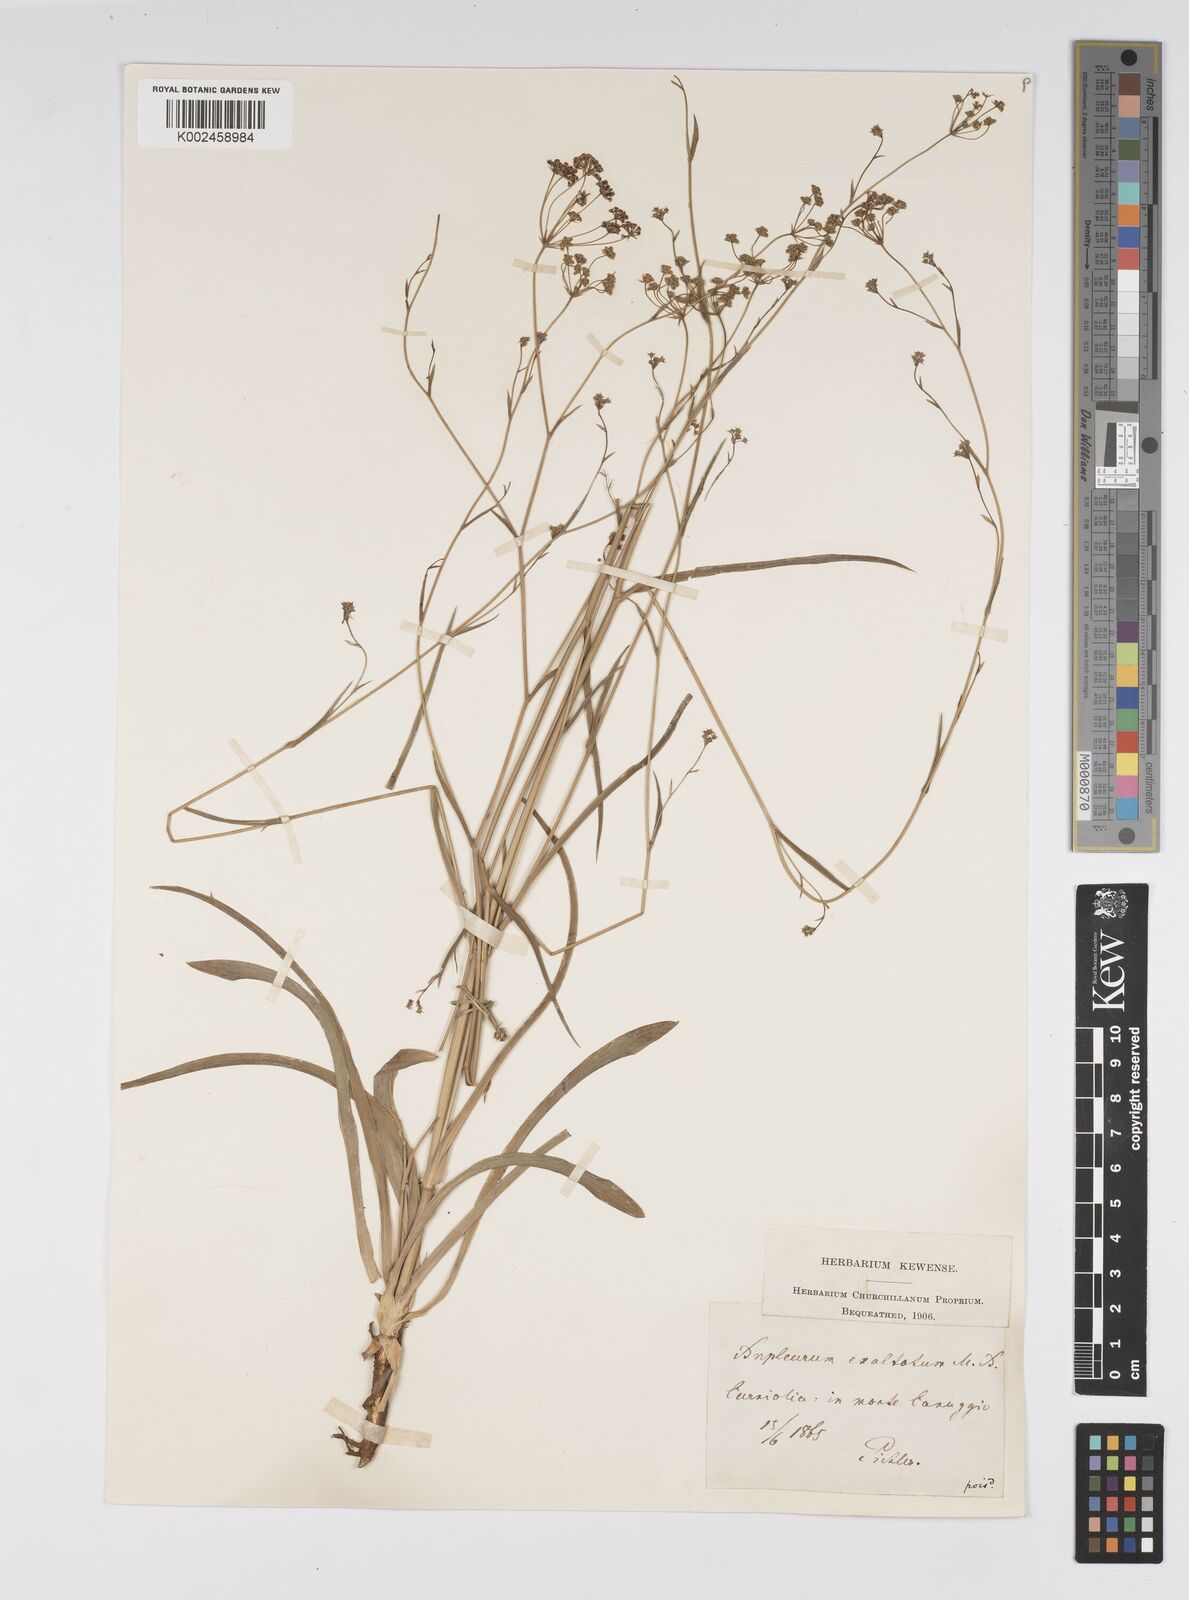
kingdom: Plantae
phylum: Tracheophyta
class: Magnoliopsida
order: Apiales
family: Apiaceae
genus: Bupleurum
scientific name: Bupleurum falcatum
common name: Sickle-leaved hare's-ear
